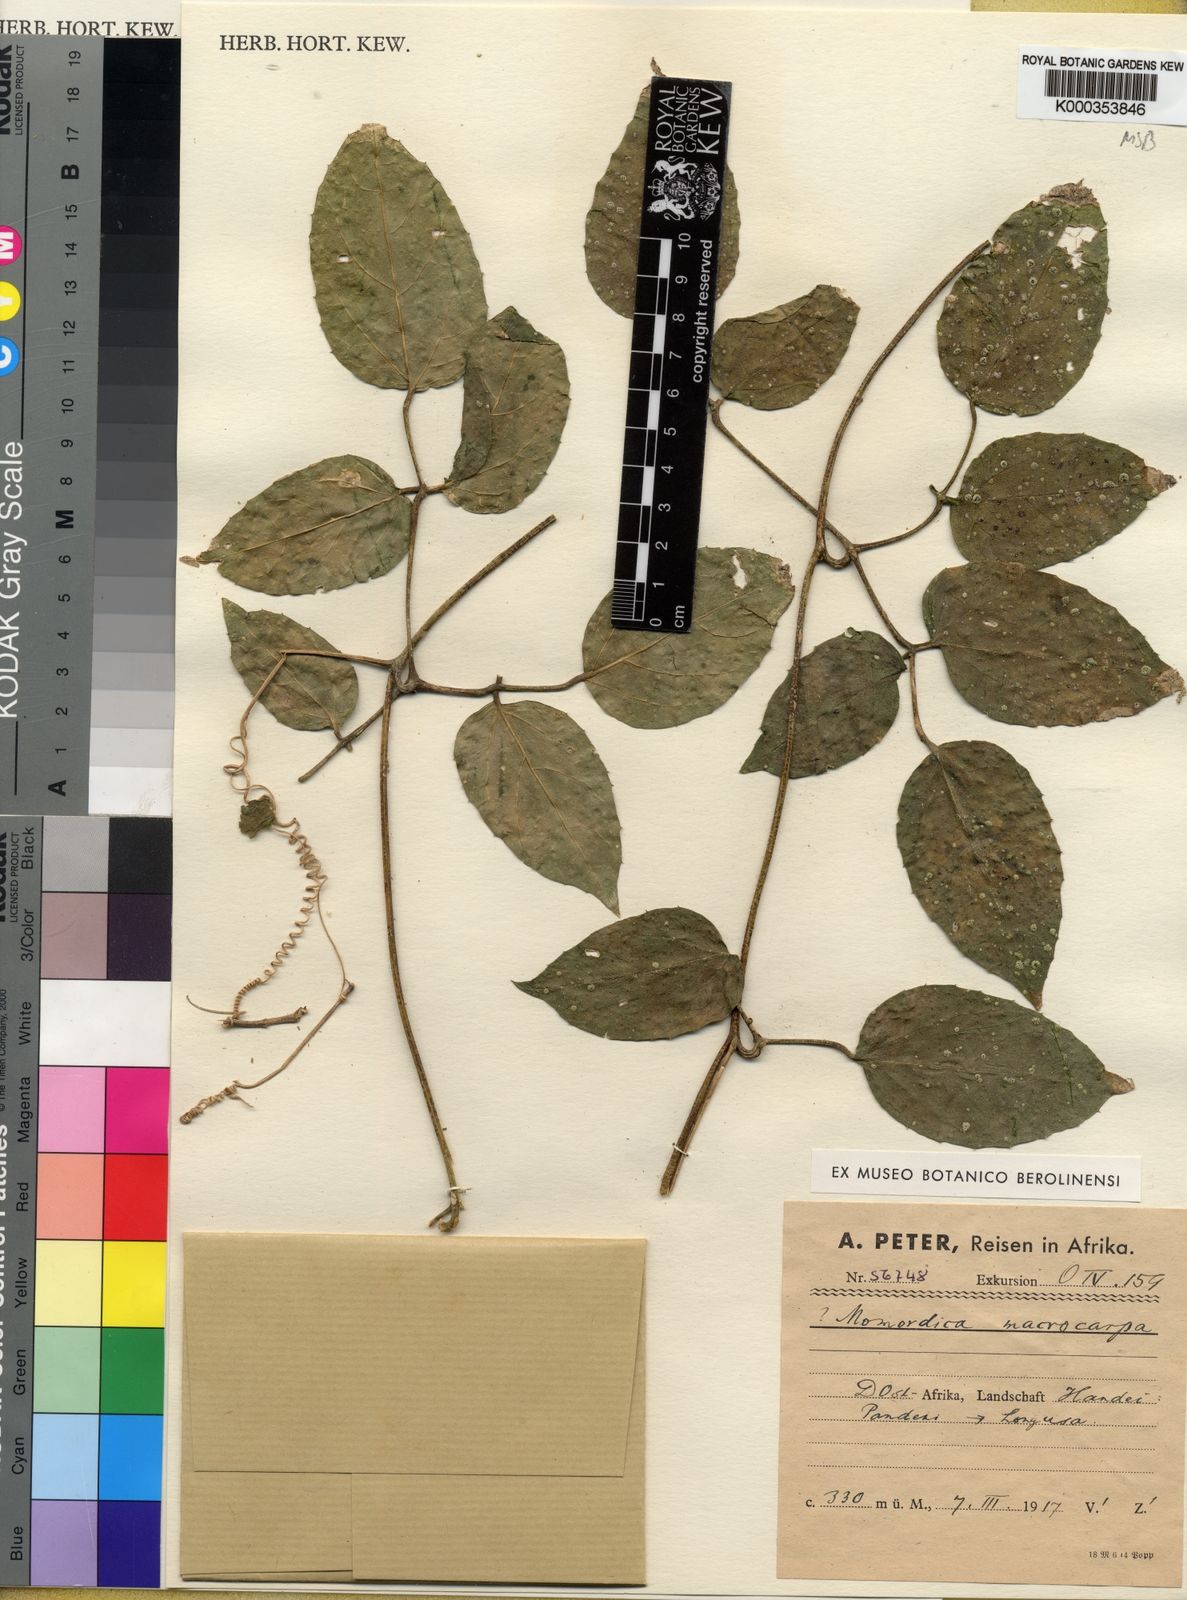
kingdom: Plantae
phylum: Tracheophyta
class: Magnoliopsida
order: Cucurbitales
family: Cucurbitaceae
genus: Momordica
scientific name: Momordica peteri
